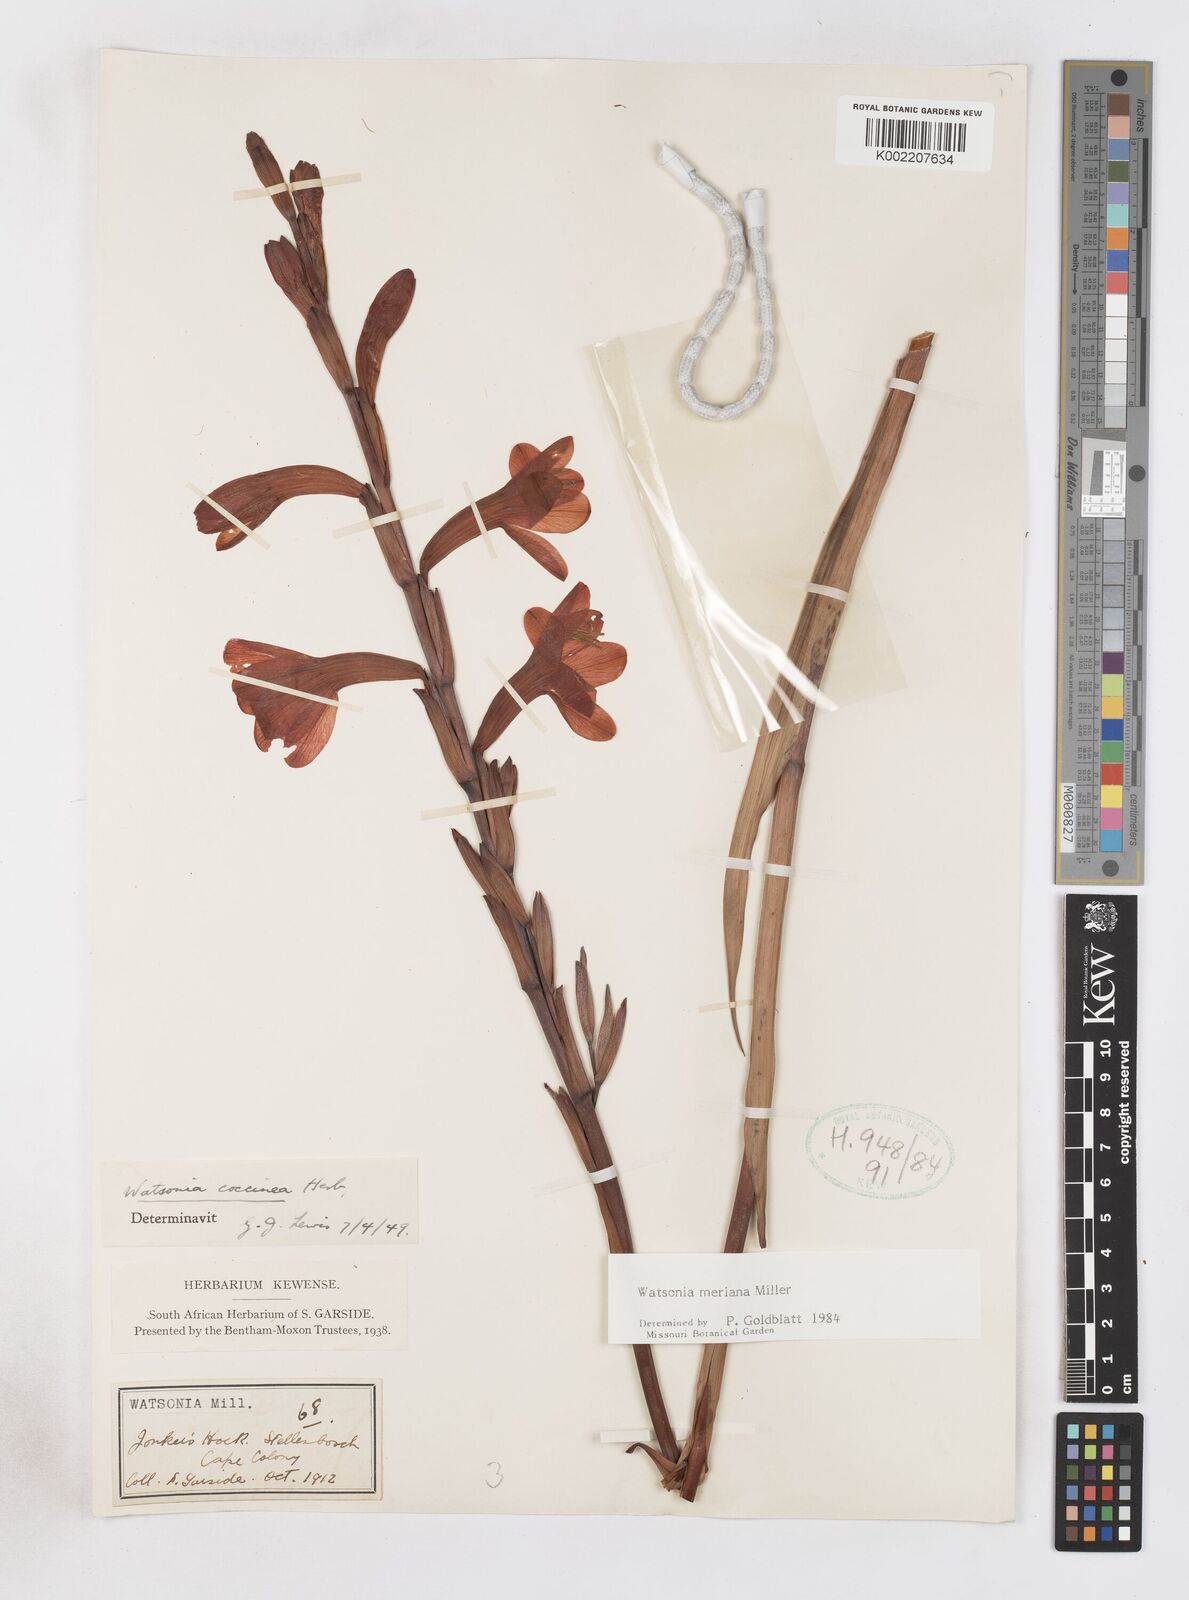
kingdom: Plantae
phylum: Tracheophyta
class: Liliopsida
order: Asparagales
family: Iridaceae
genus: Watsonia
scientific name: Watsonia meriana
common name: Bulbil bugle-lily
